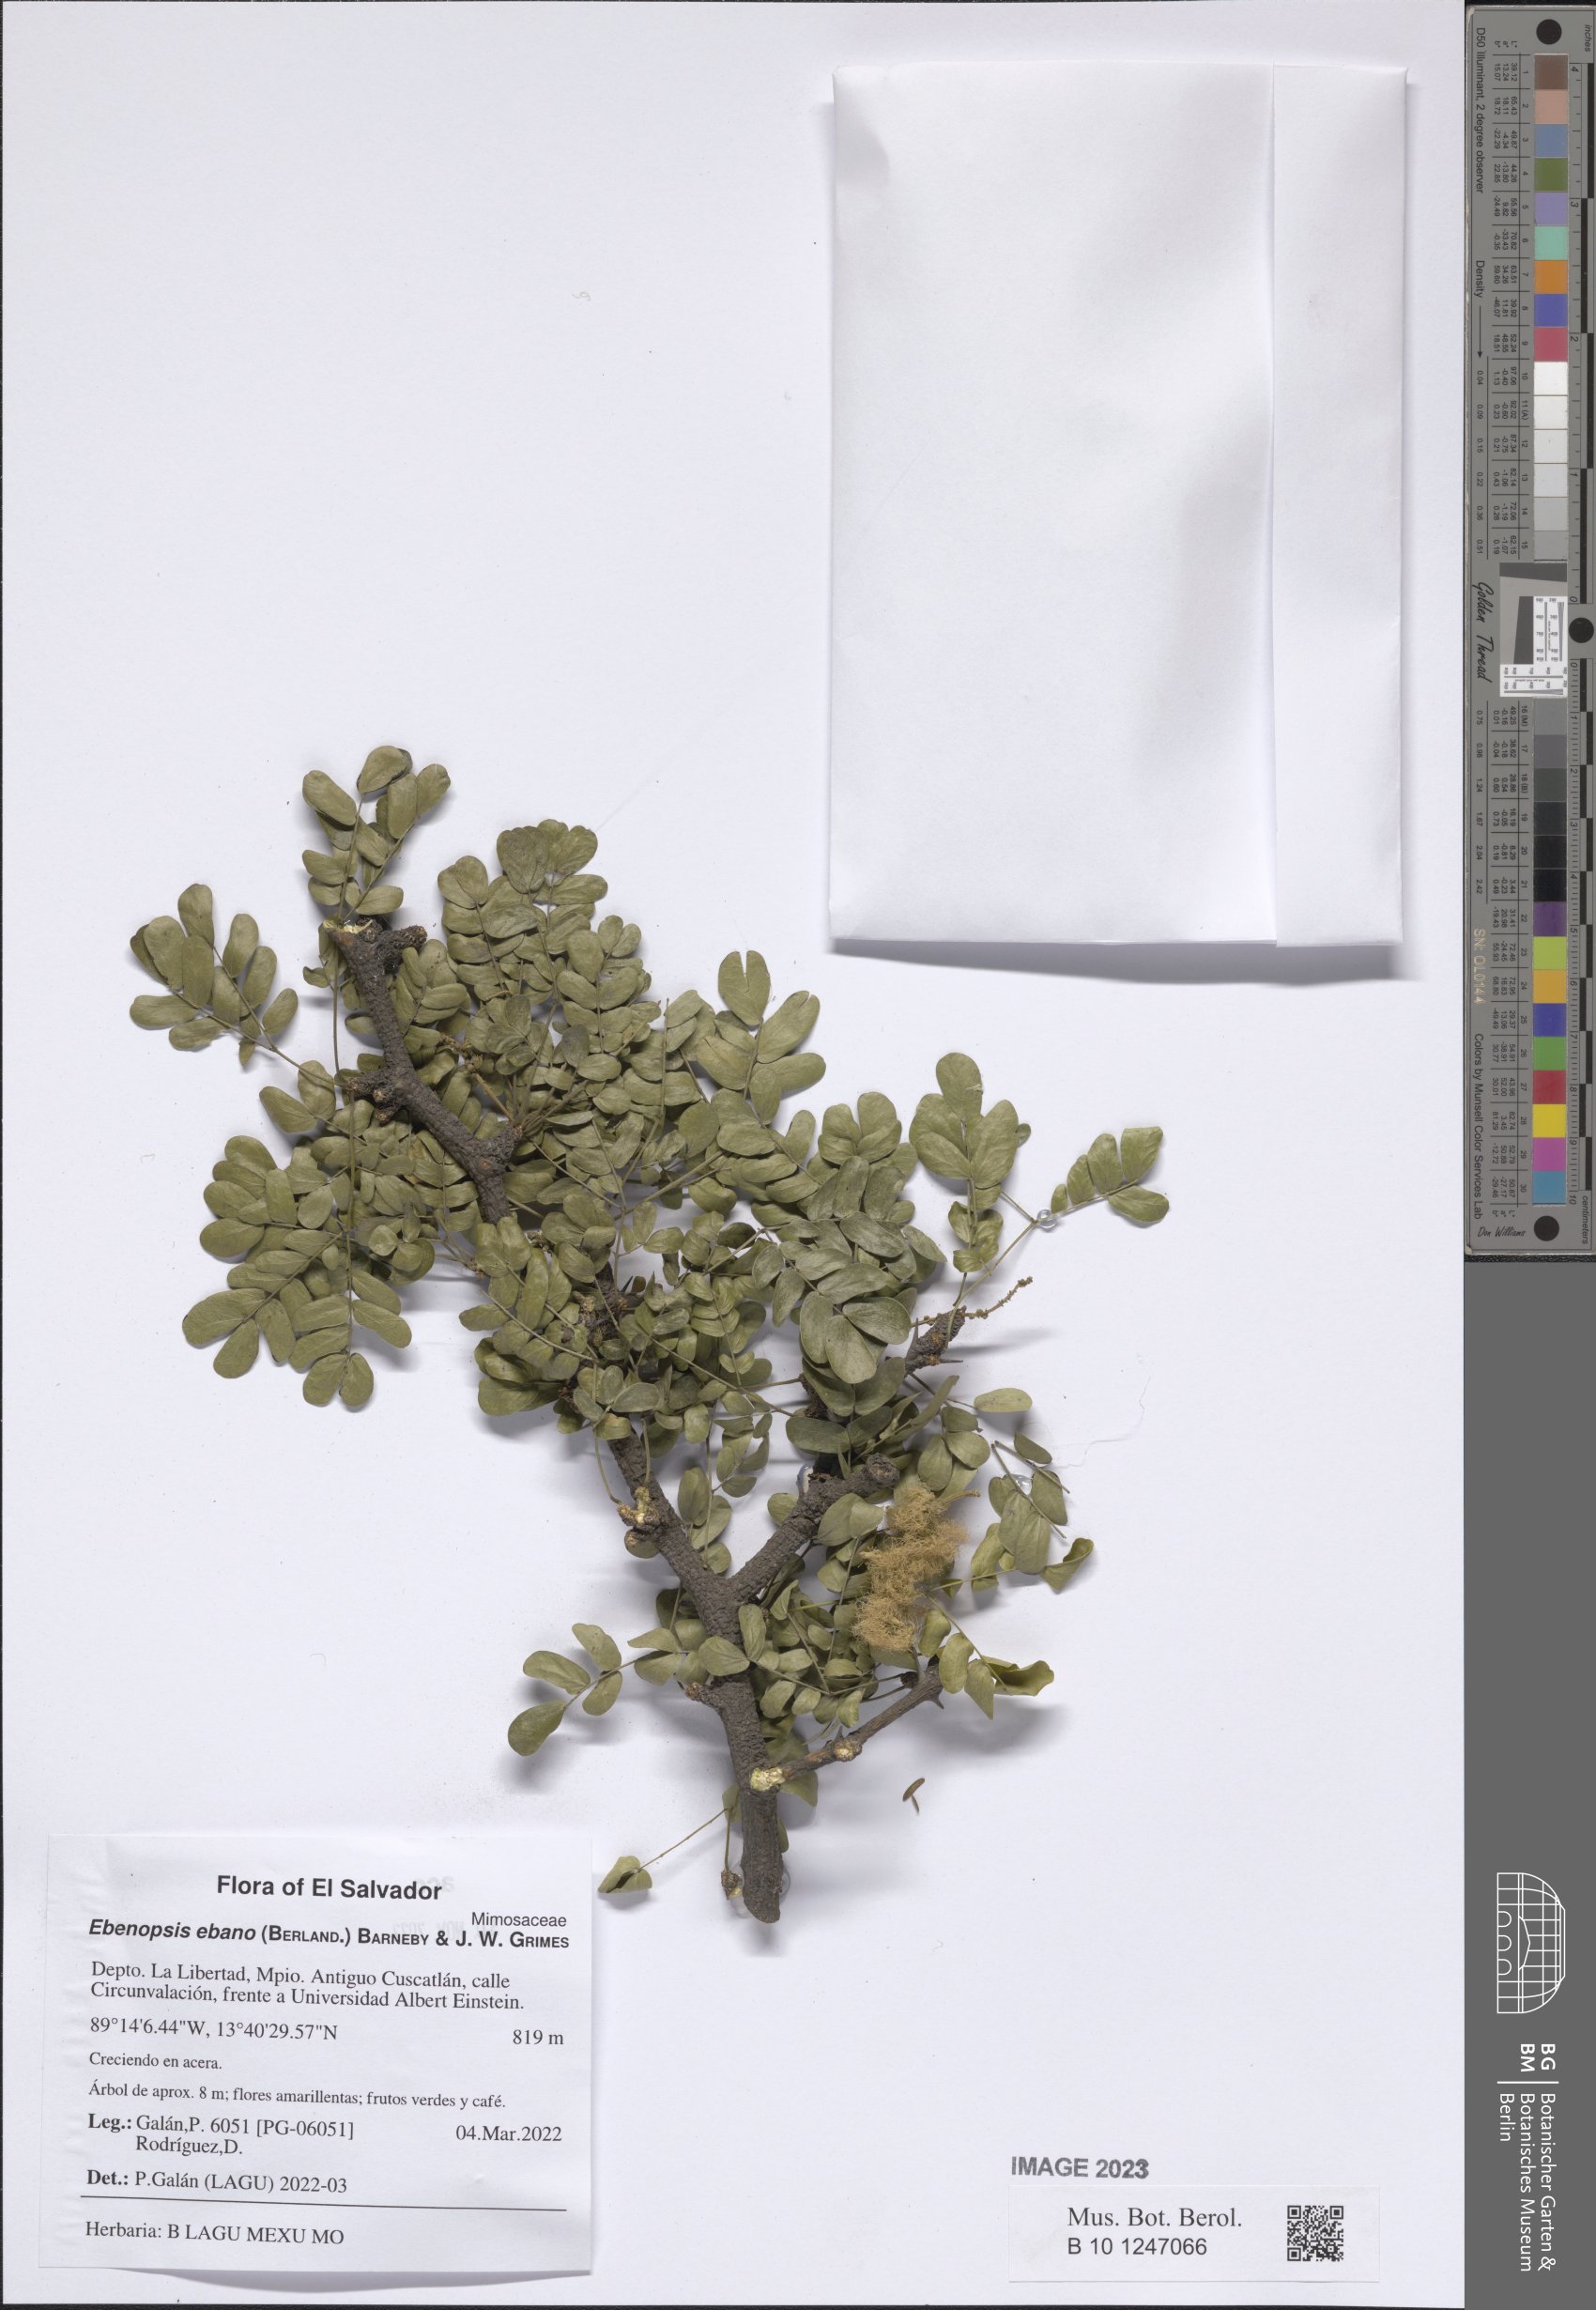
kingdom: Plantae
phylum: Tracheophyta
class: Magnoliopsida
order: Fabales
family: Fabaceae
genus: Ebenopsis
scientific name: Ebenopsis ebano
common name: Ebony blackbead
